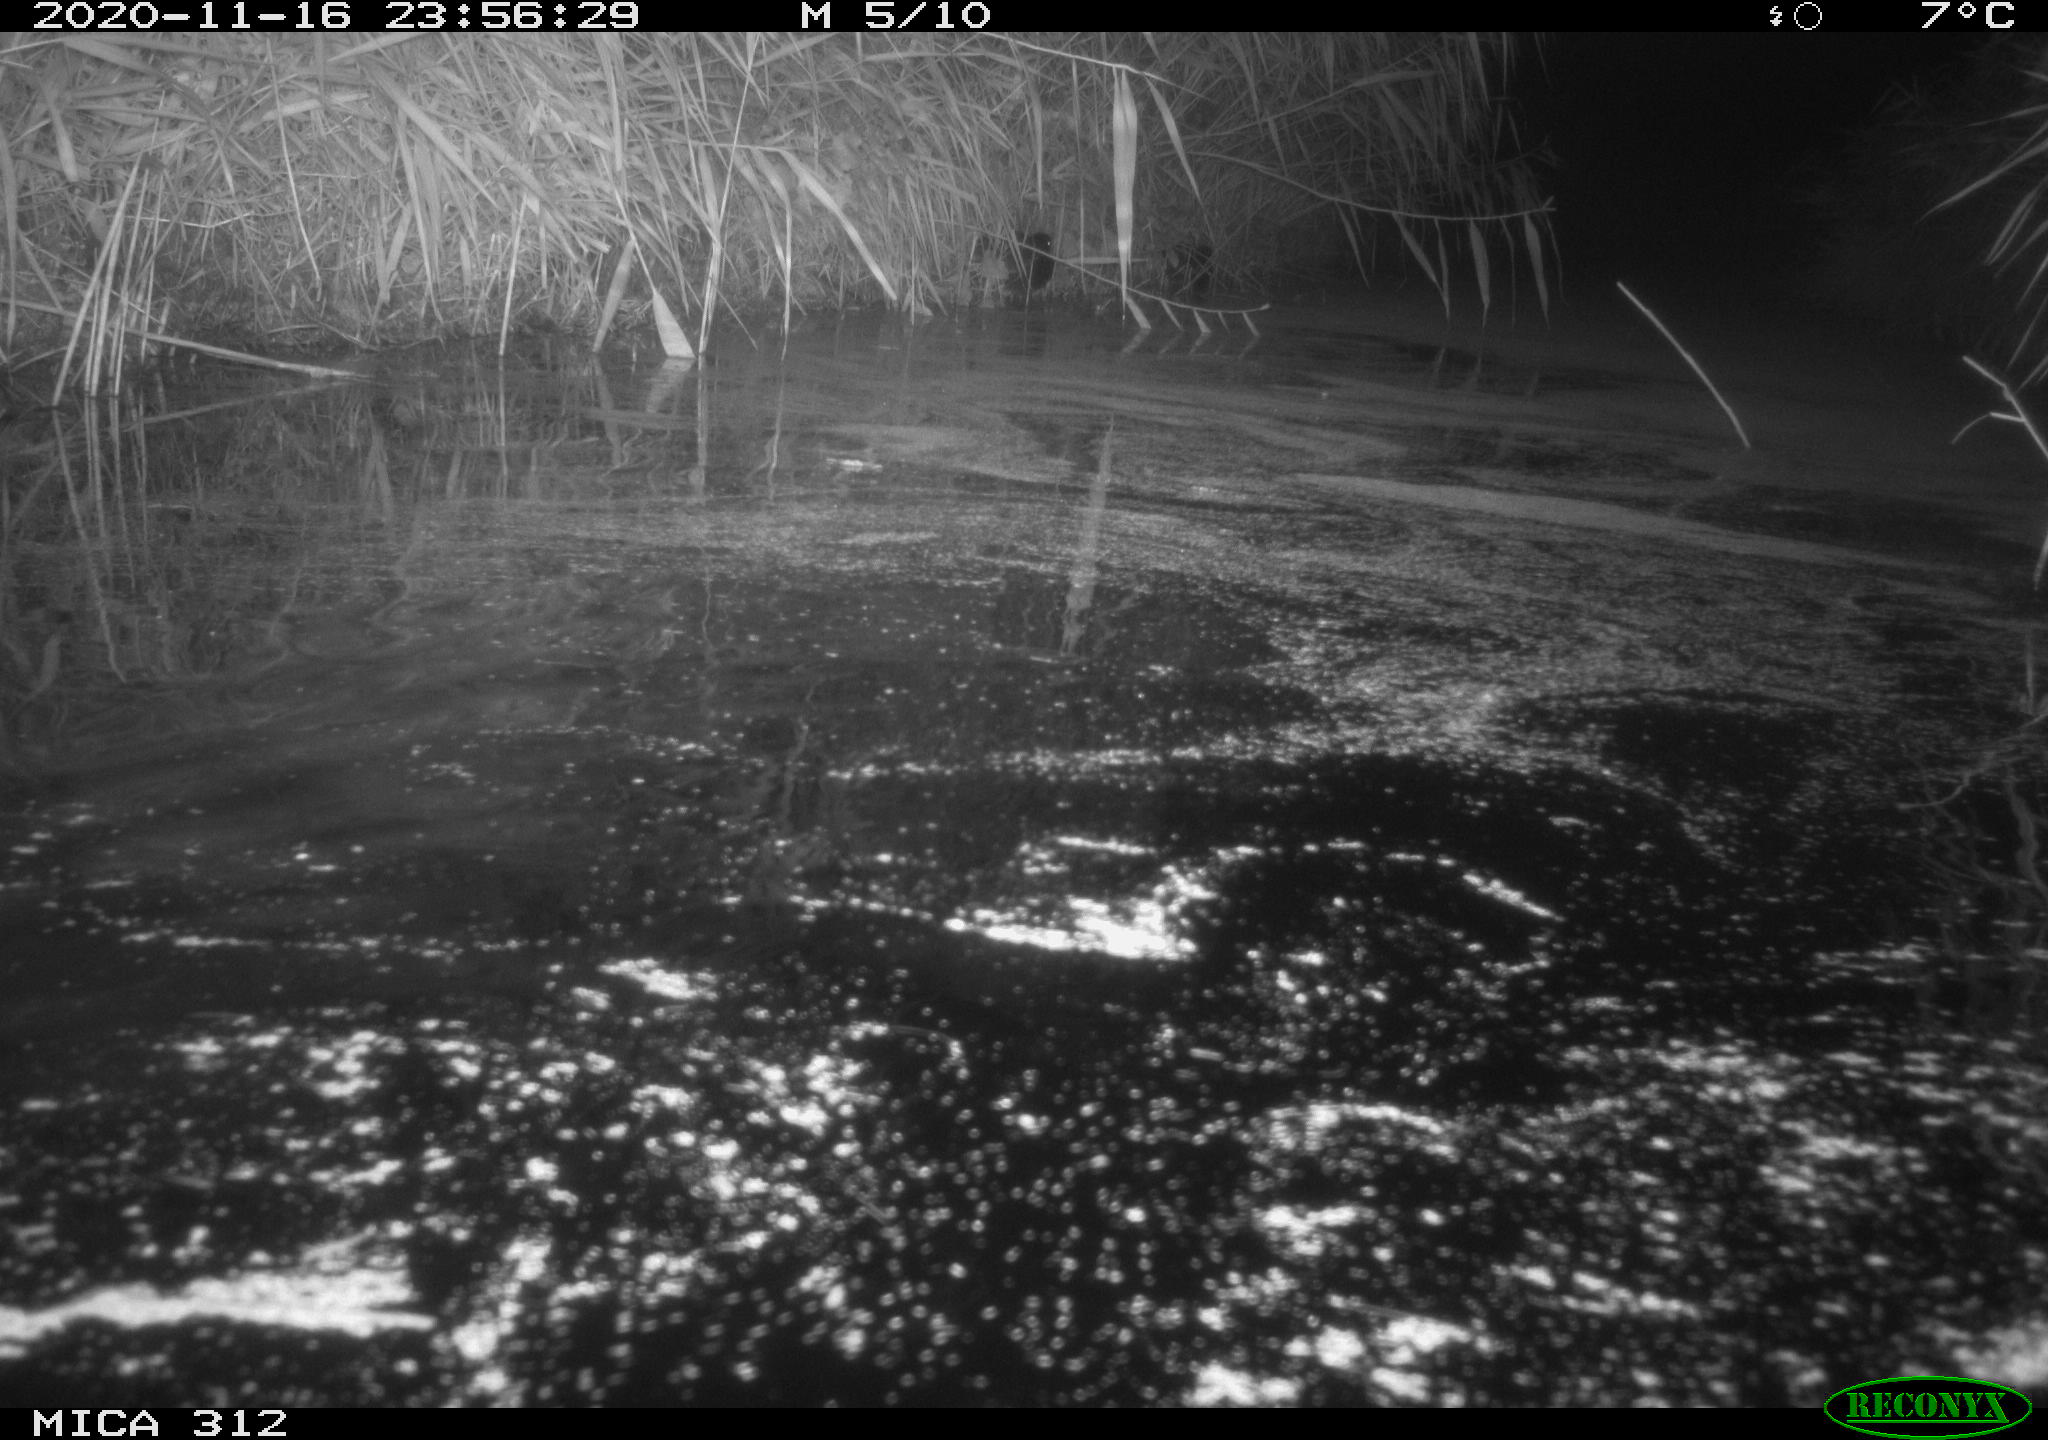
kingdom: Animalia
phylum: Chordata
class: Mammalia
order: Rodentia
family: Cricetidae
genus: Ondatra
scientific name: Ondatra zibethicus
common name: Muskrat
